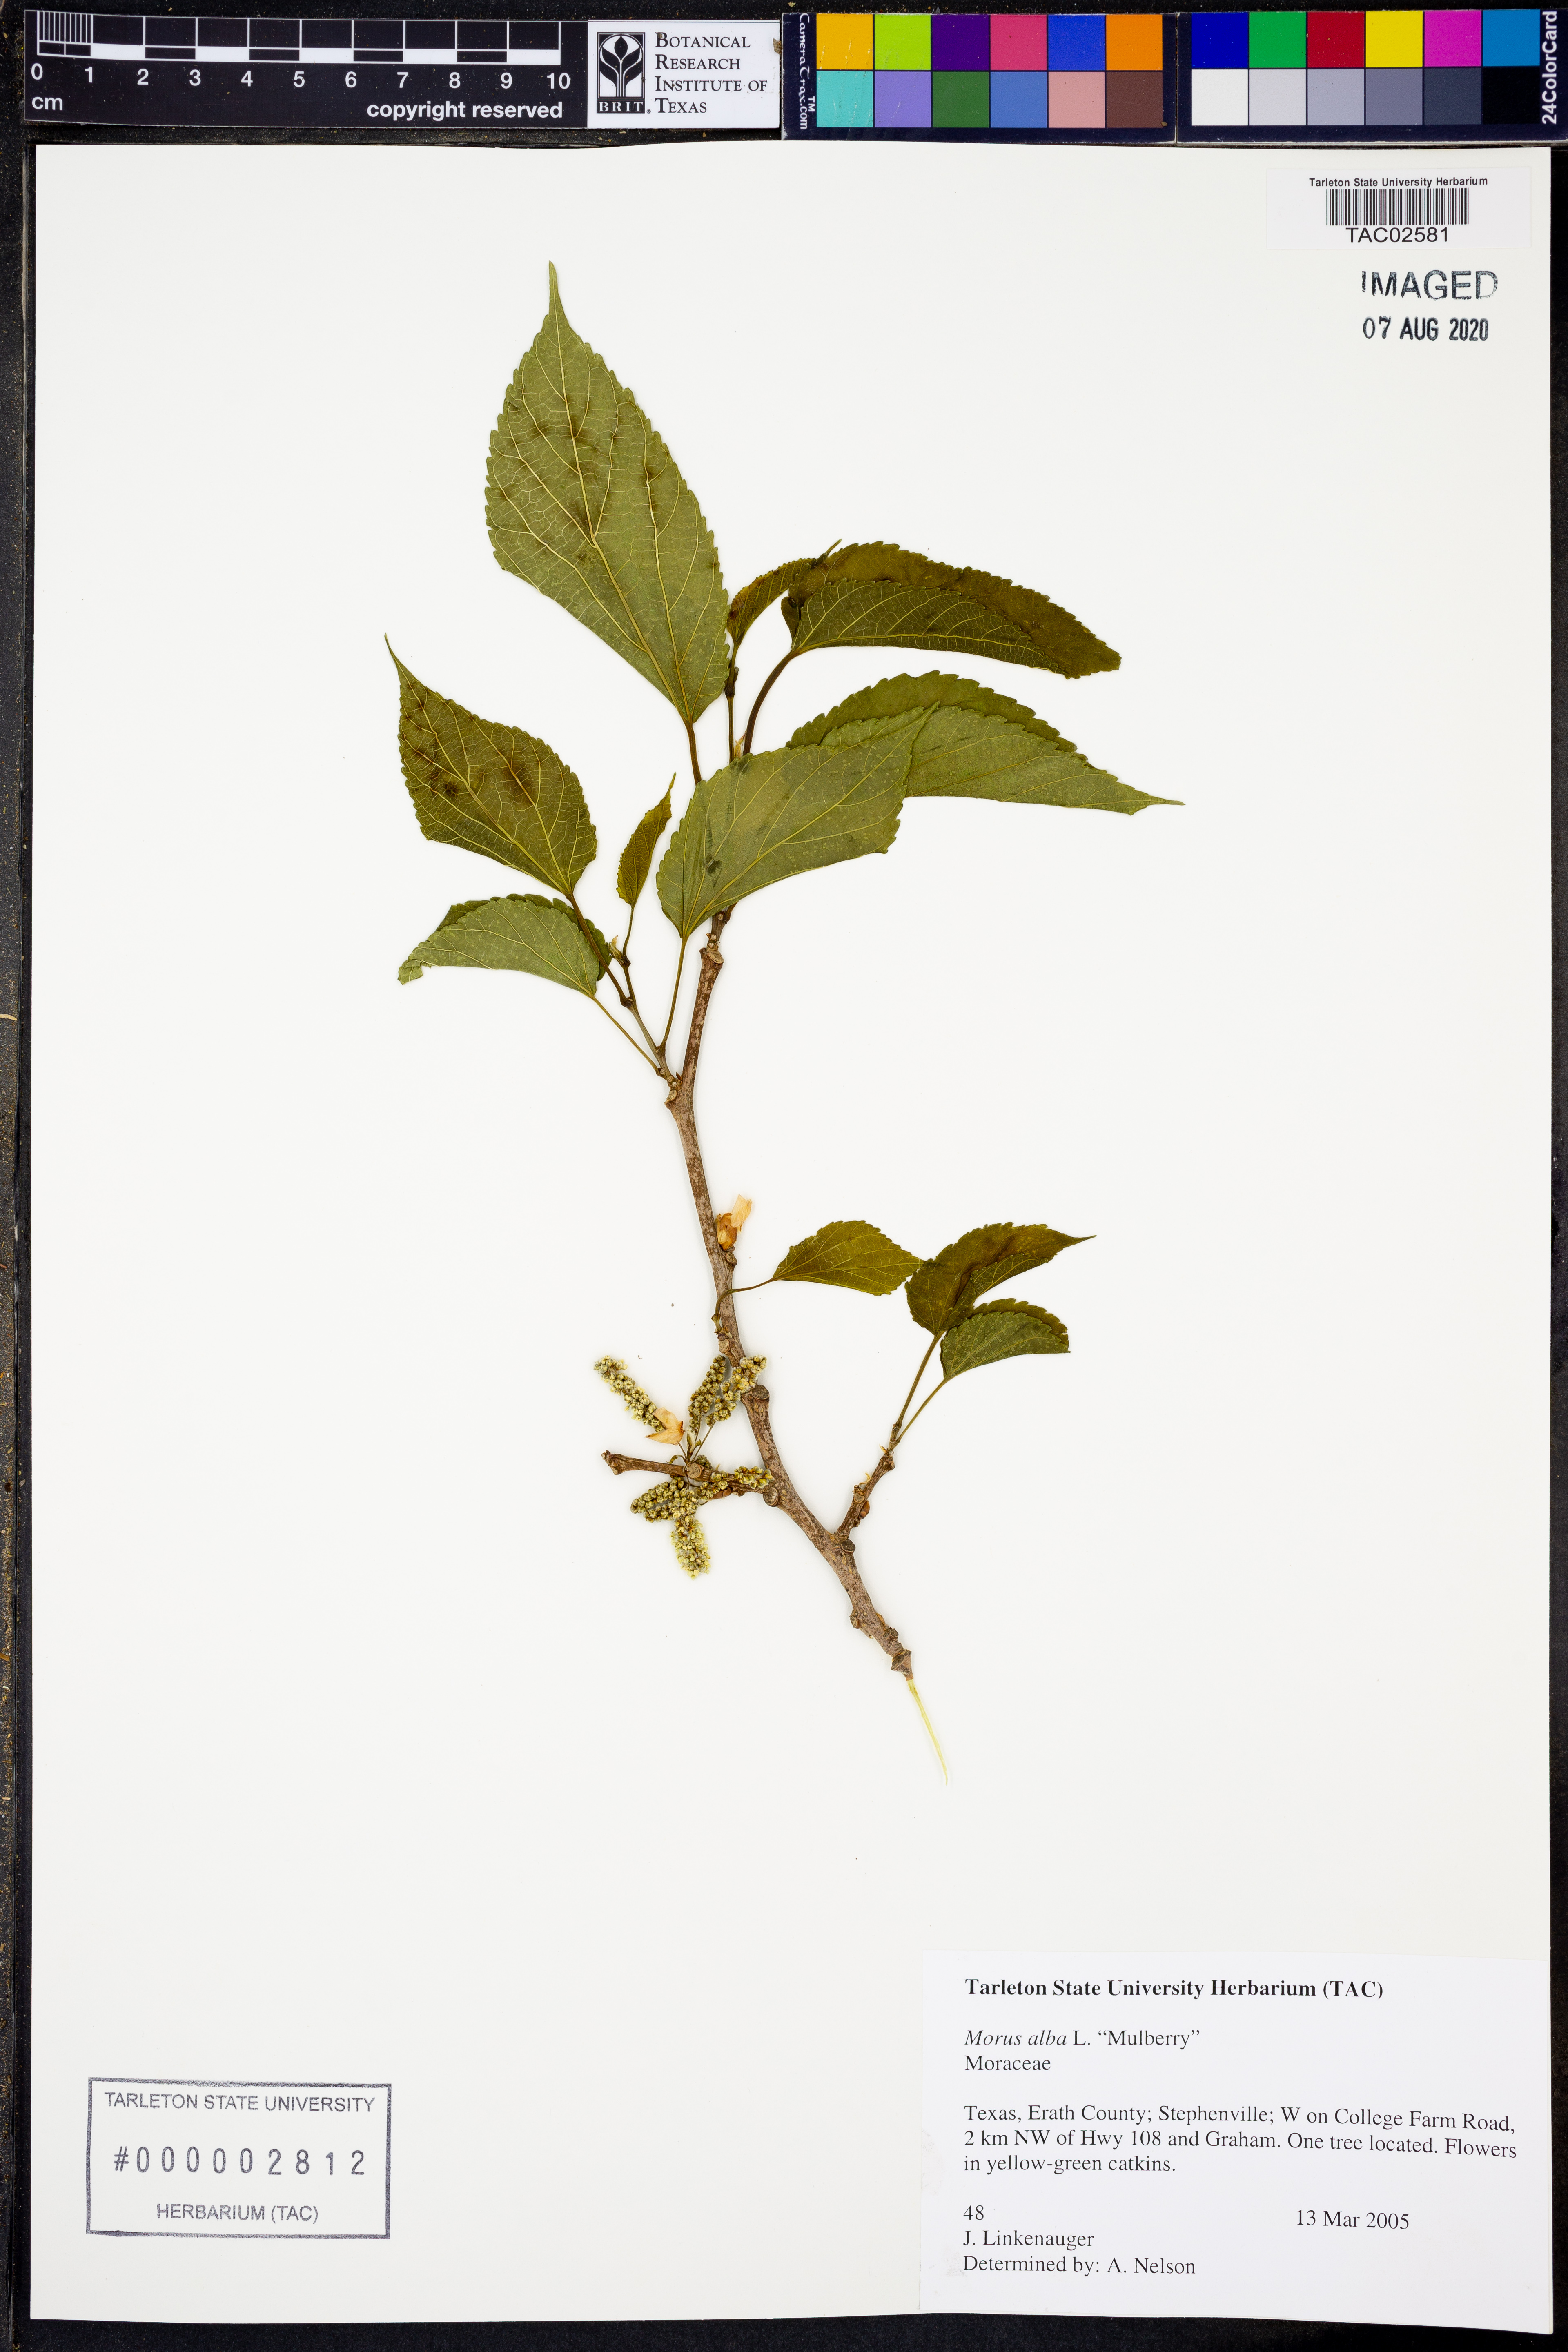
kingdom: Plantae
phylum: Tracheophyta
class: Magnoliopsida
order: Rosales
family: Moraceae
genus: Morus
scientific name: Morus alba
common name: White mulberry
